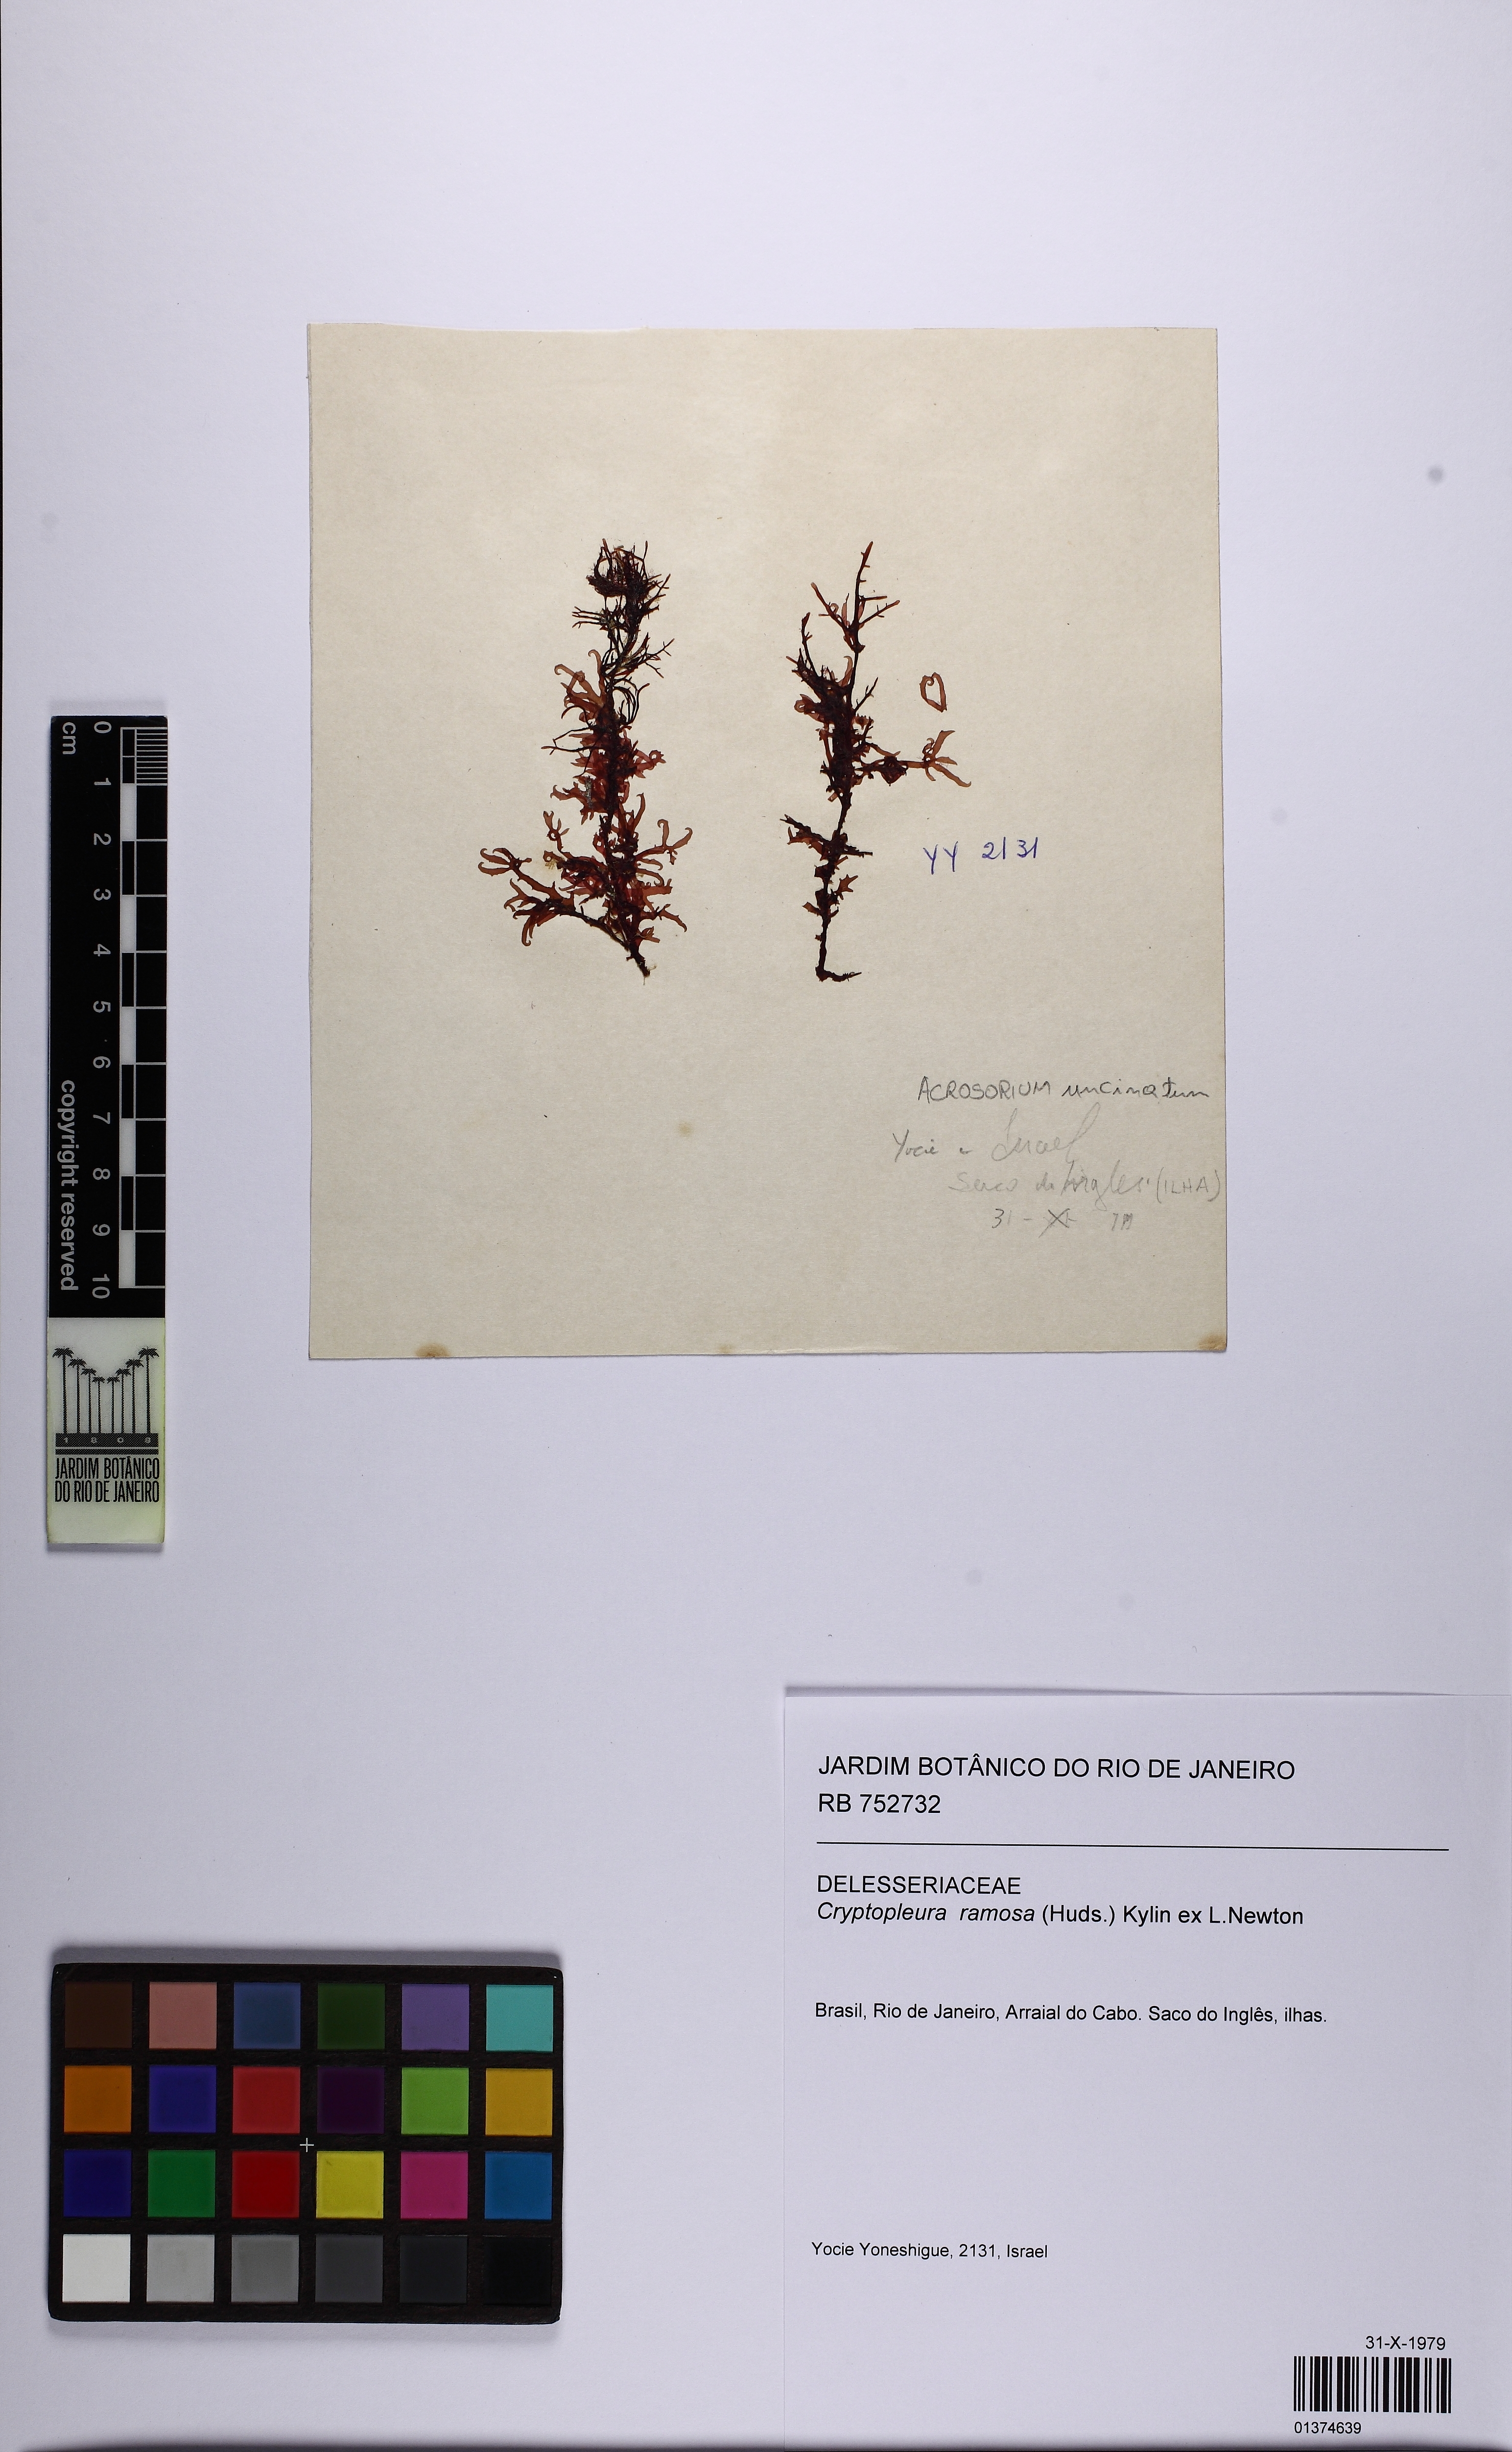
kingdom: Plantae
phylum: Rhodophyta
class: Florideophyceae
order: Ceramiales
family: Delesseriaceae
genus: Cryptopleura
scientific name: Cryptopleura ramosa
